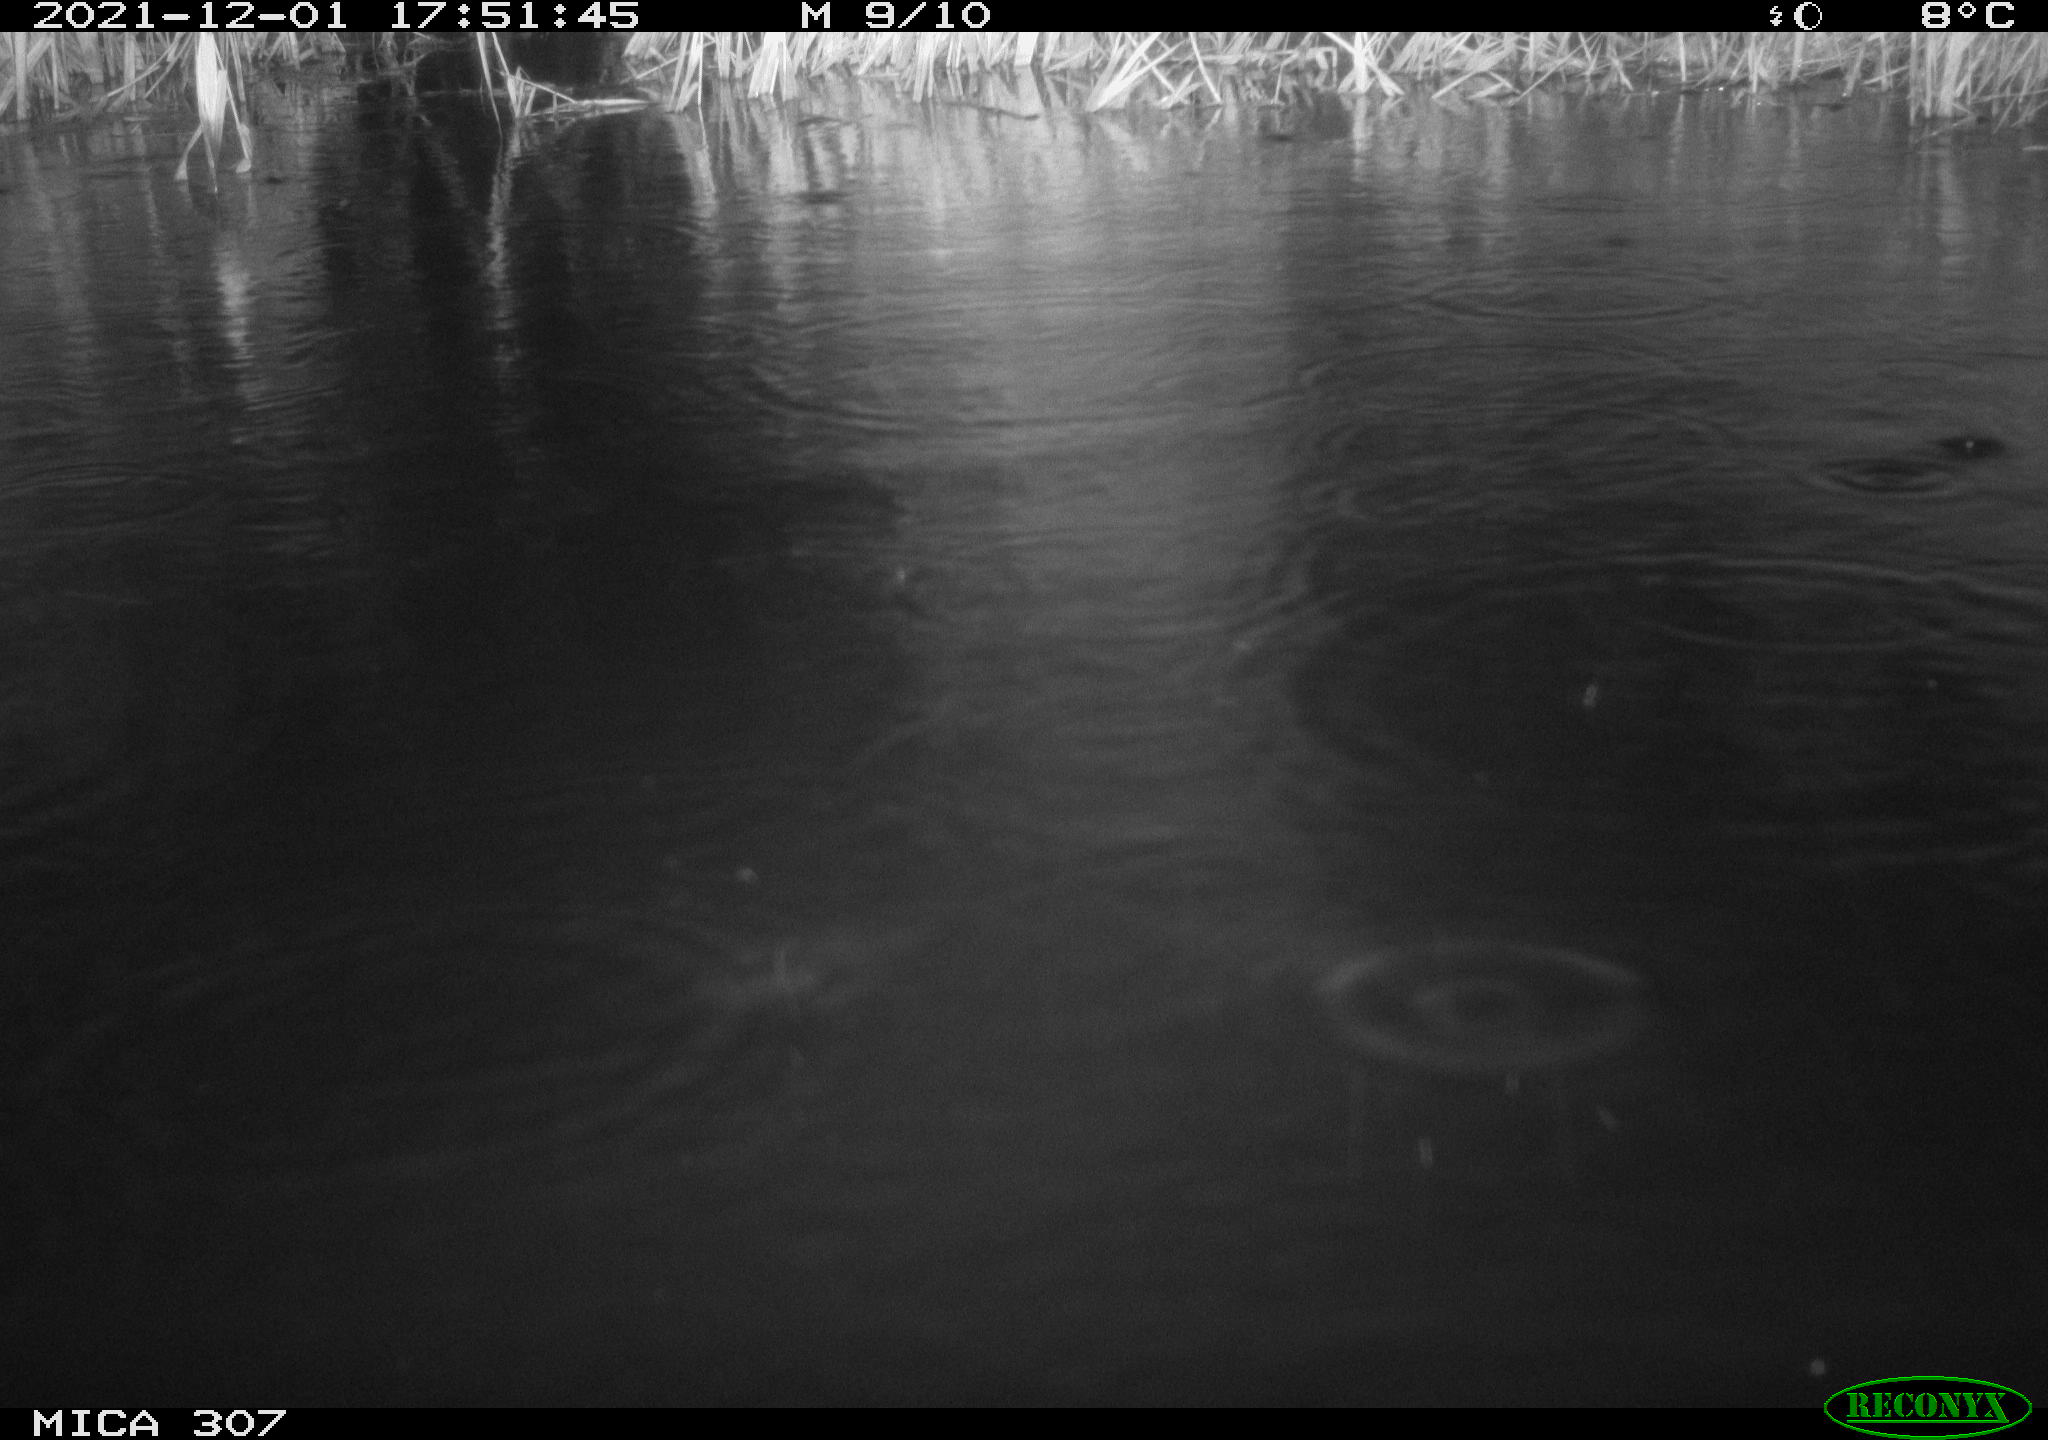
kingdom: Animalia
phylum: Chordata
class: Mammalia
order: Rodentia
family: Muridae
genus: Rattus
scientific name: Rattus norvegicus
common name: Brown rat
